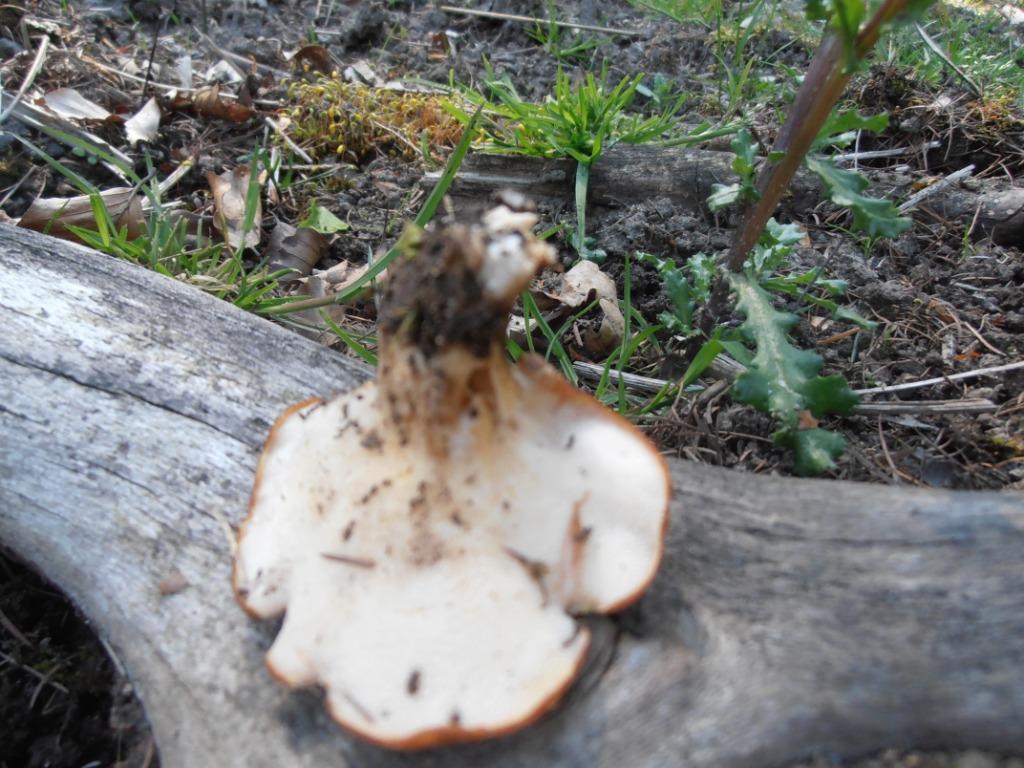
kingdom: Fungi
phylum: Basidiomycota
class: Agaricomycetes
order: Polyporales
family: Polyporaceae
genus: Polyporus
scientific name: Polyporus tuberaster
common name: knoldet stilkporesvamp
